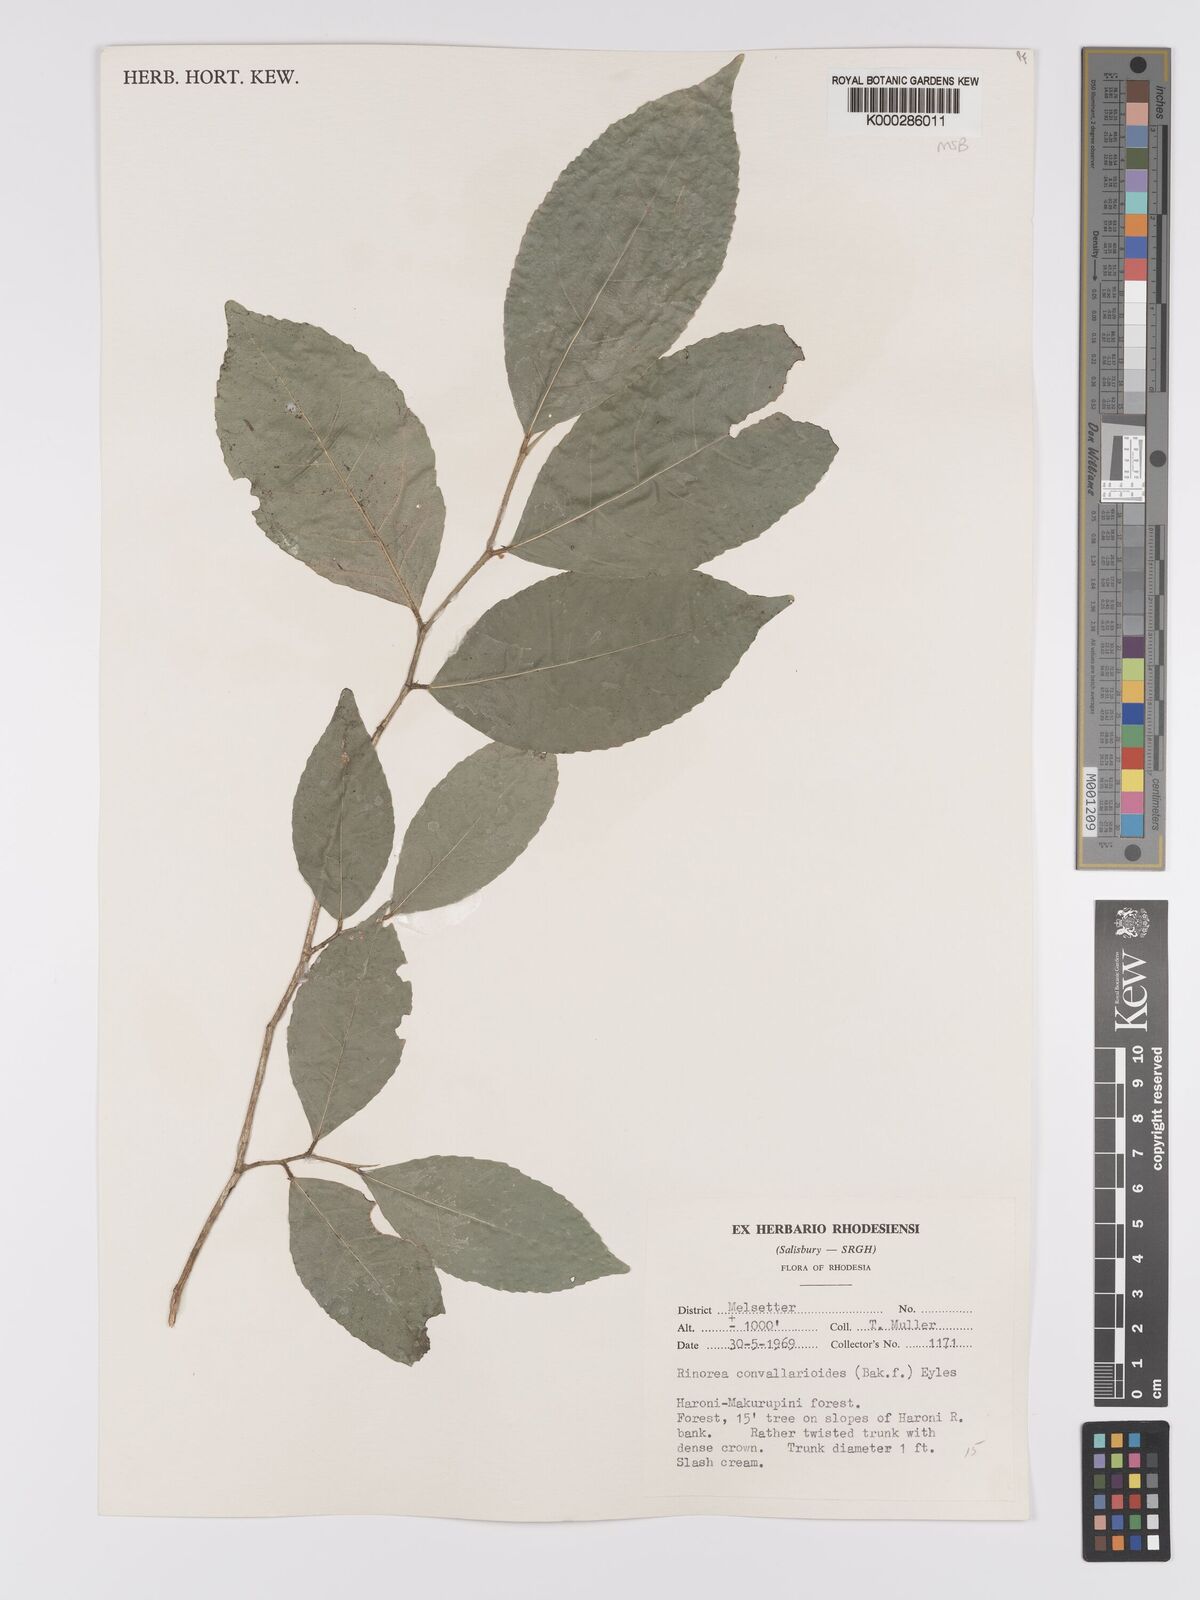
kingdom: Plantae
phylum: Tracheophyta
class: Magnoliopsida
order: Malpighiales
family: Violaceae
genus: Rinorea
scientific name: Rinorea convallarioides
